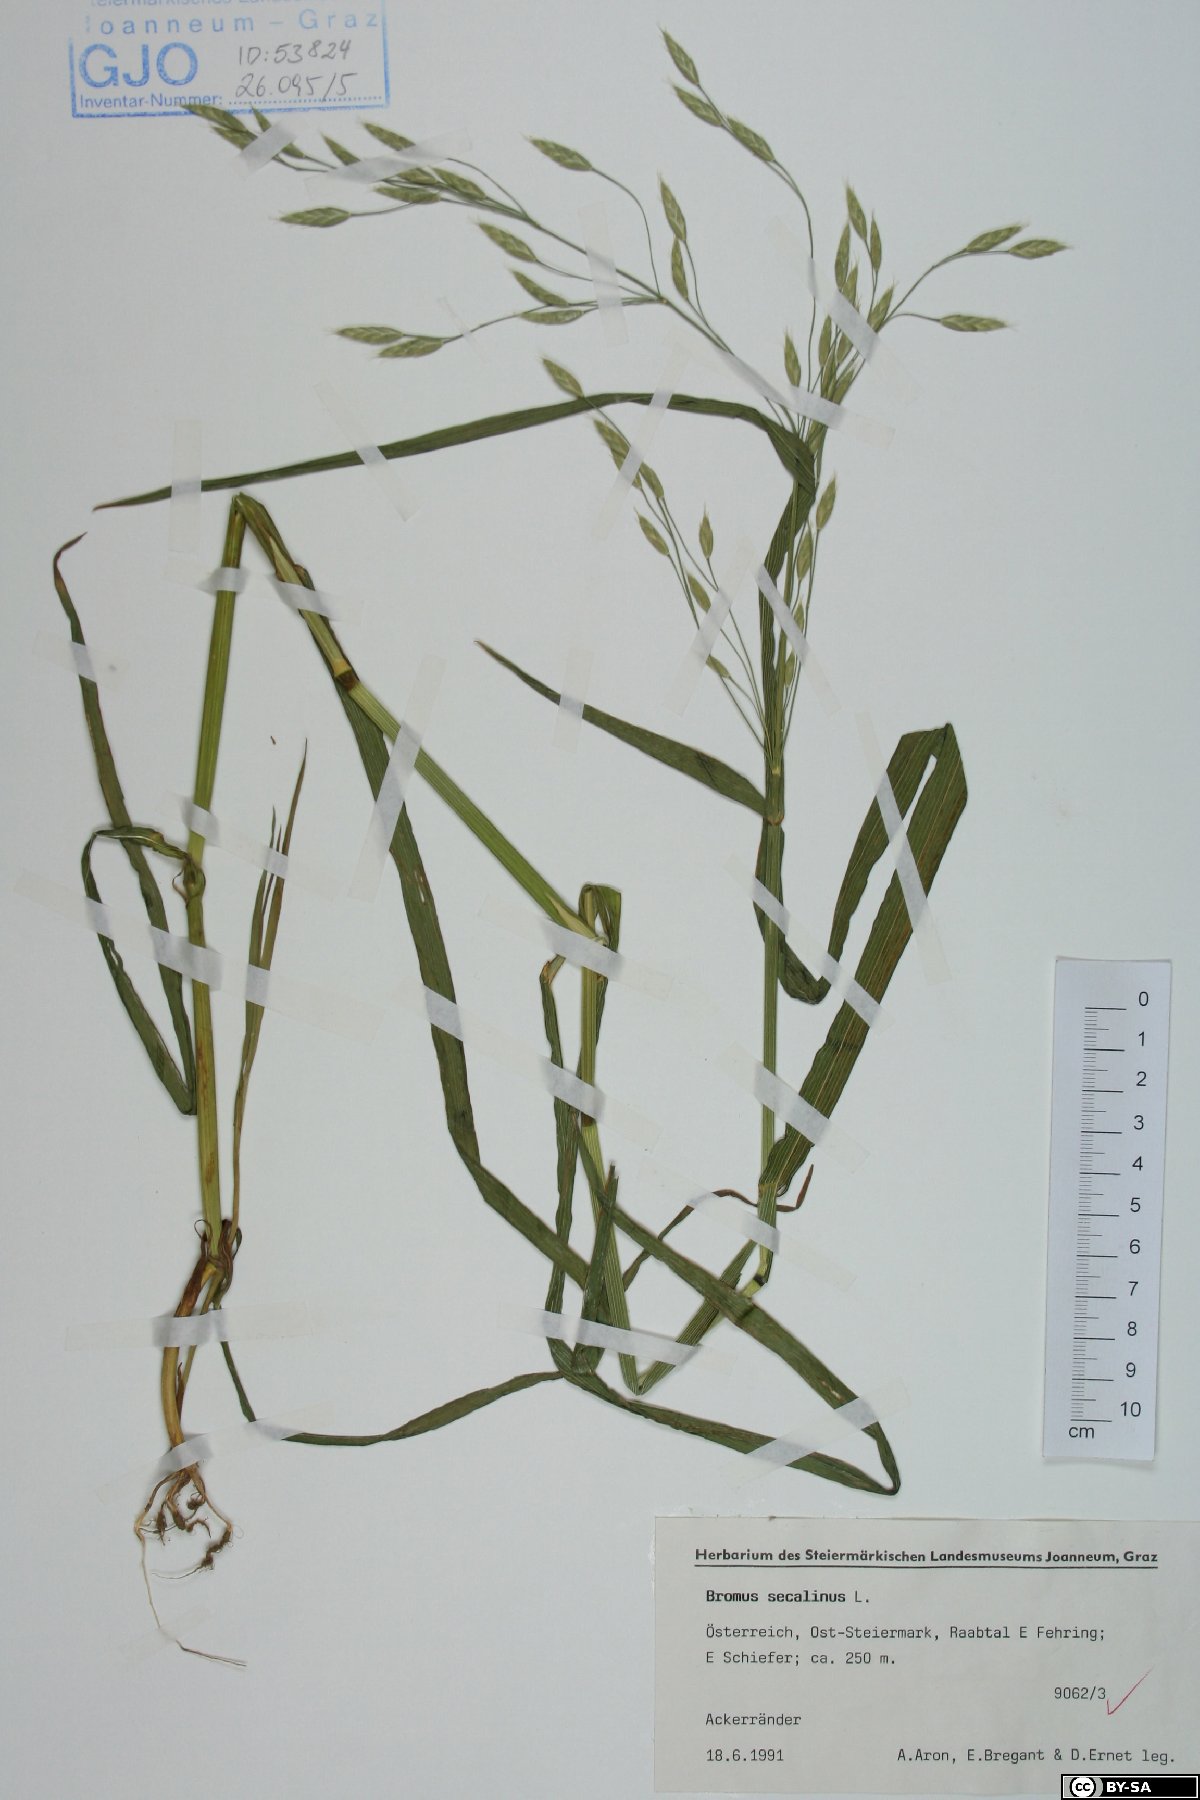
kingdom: Plantae
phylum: Tracheophyta
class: Liliopsida
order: Poales
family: Poaceae
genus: Bromus
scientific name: Bromus secalinus
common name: Rye brome
